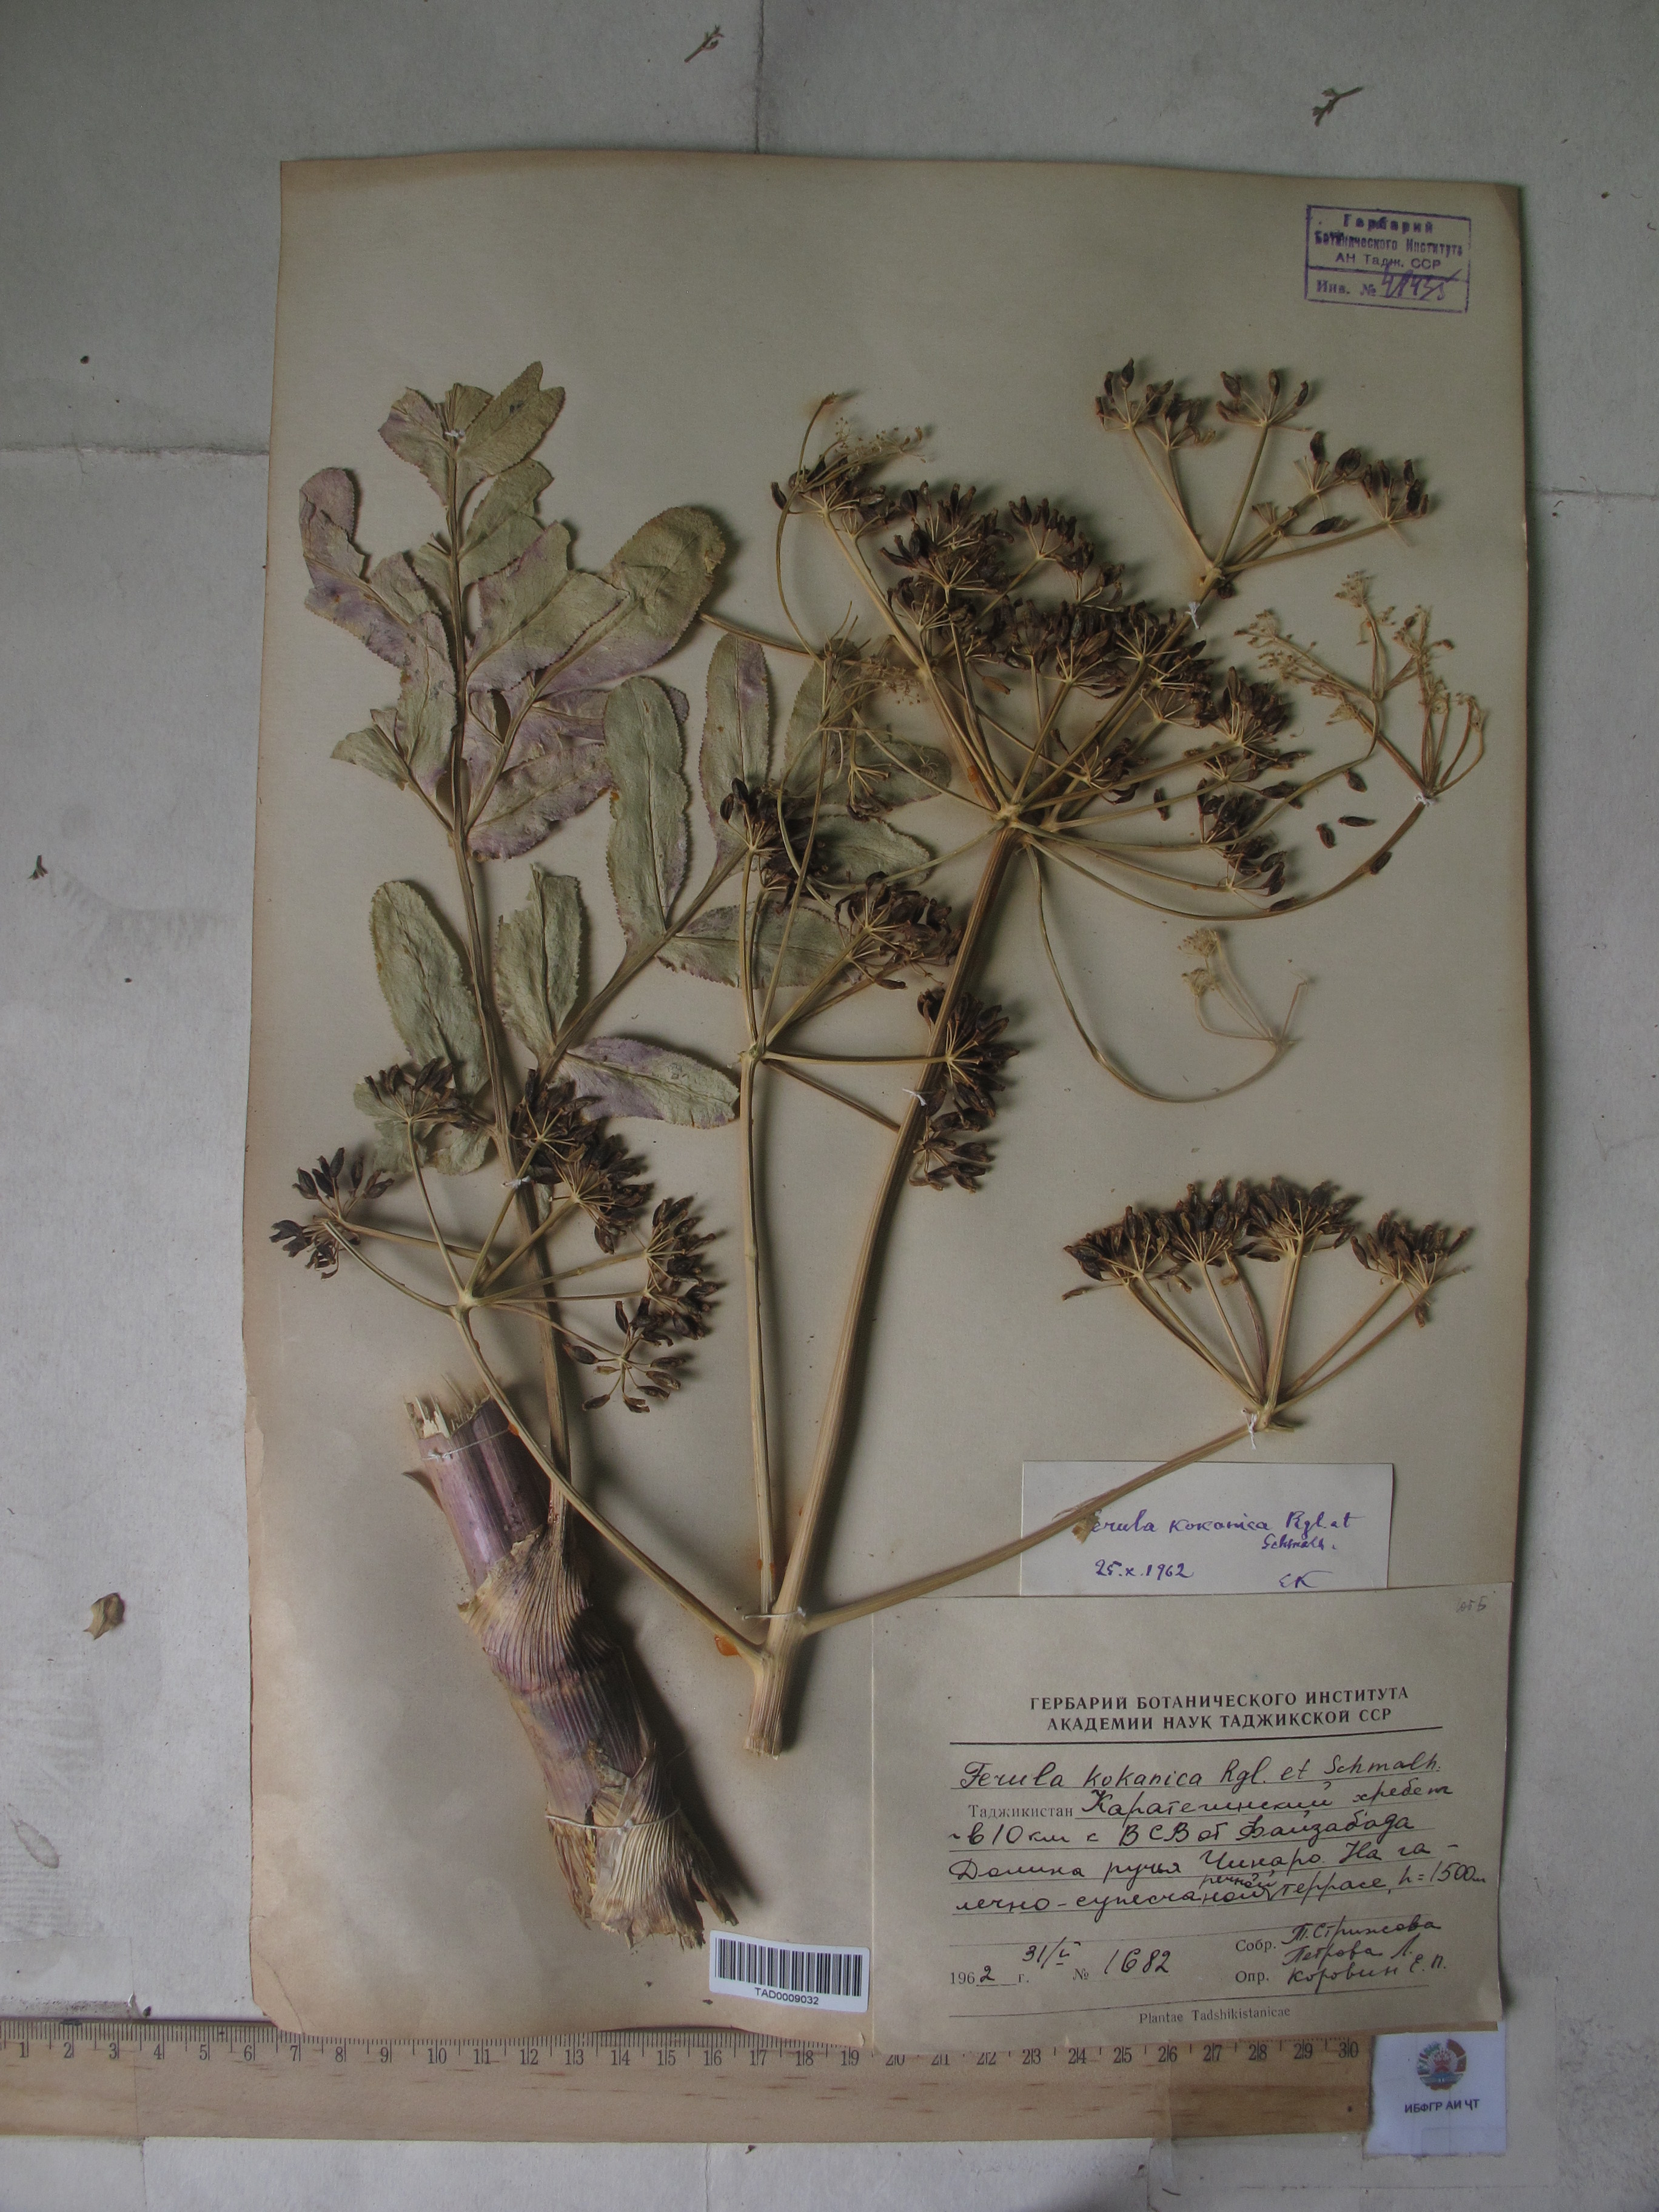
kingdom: Plantae
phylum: Tracheophyta
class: Magnoliopsida
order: Apiales
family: Apiaceae
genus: Ferula
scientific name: Ferula kokanica
